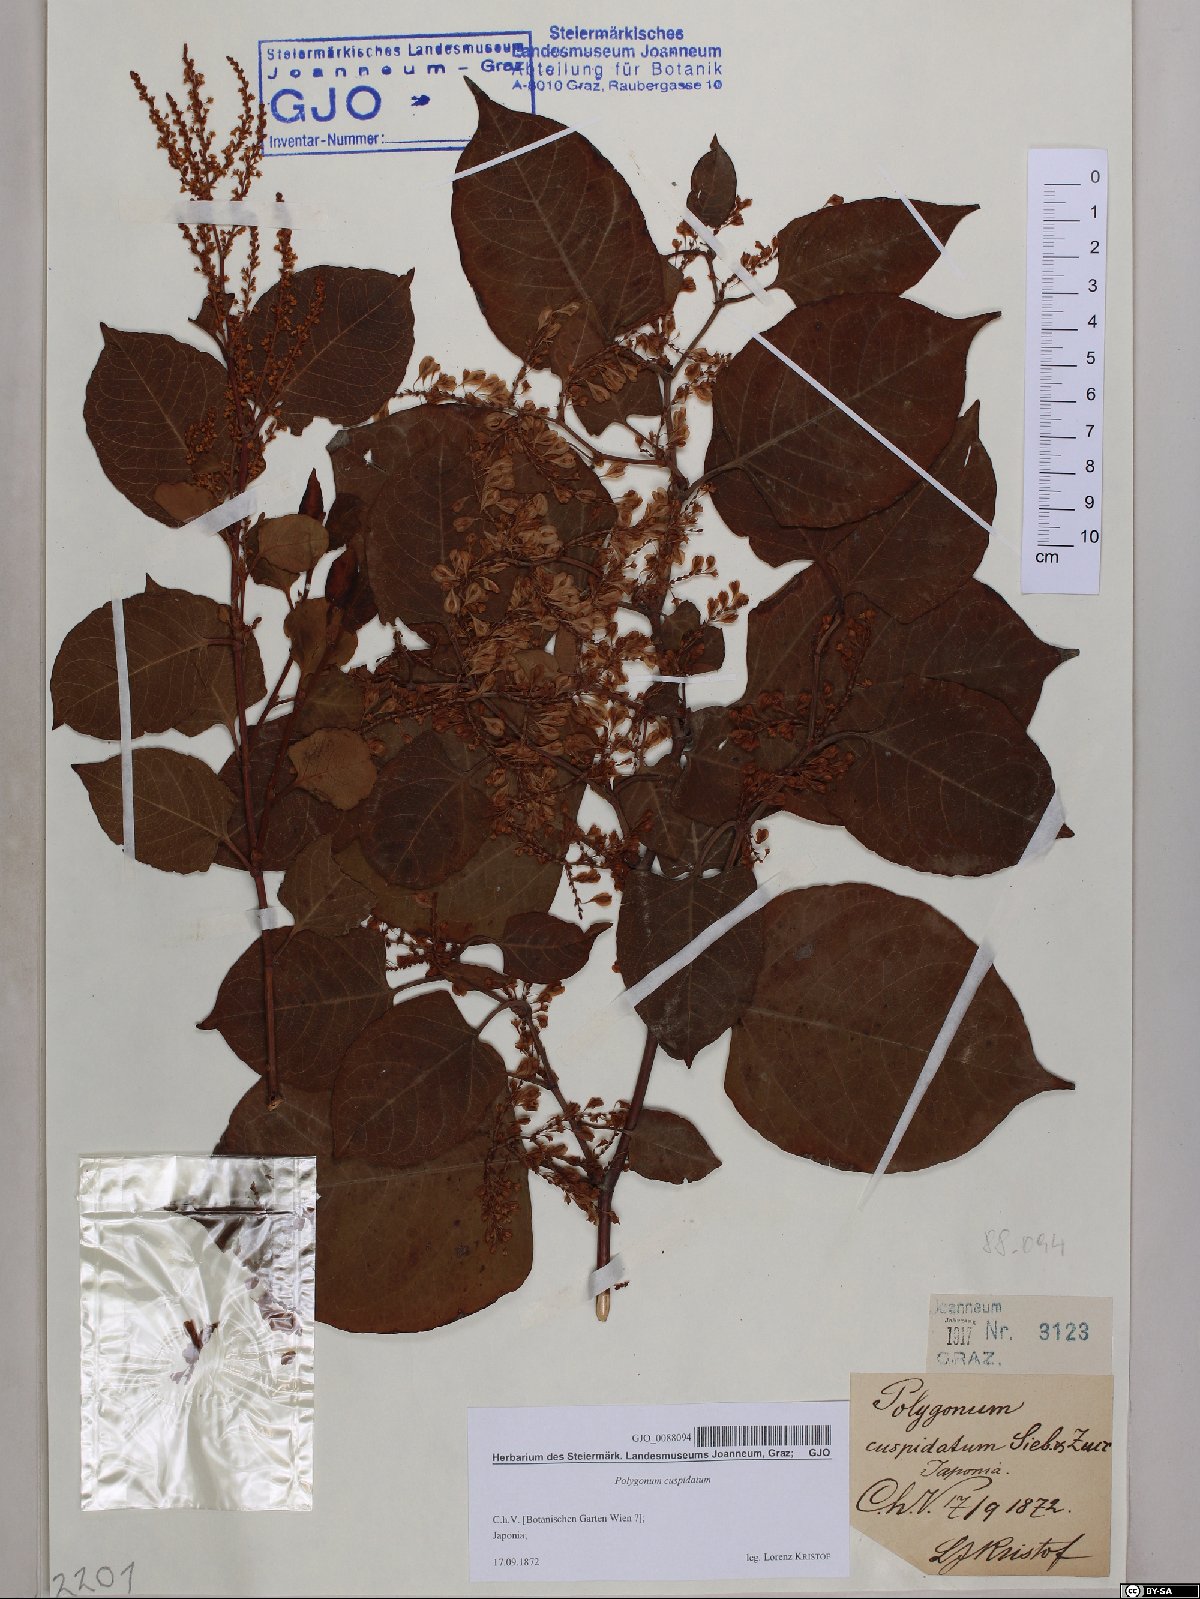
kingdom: Plantae
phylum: Tracheophyta
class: Magnoliopsida
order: Caryophyllales
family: Polygonaceae
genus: Reynoutria
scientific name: Reynoutria japonica
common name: Japanese knotweed
